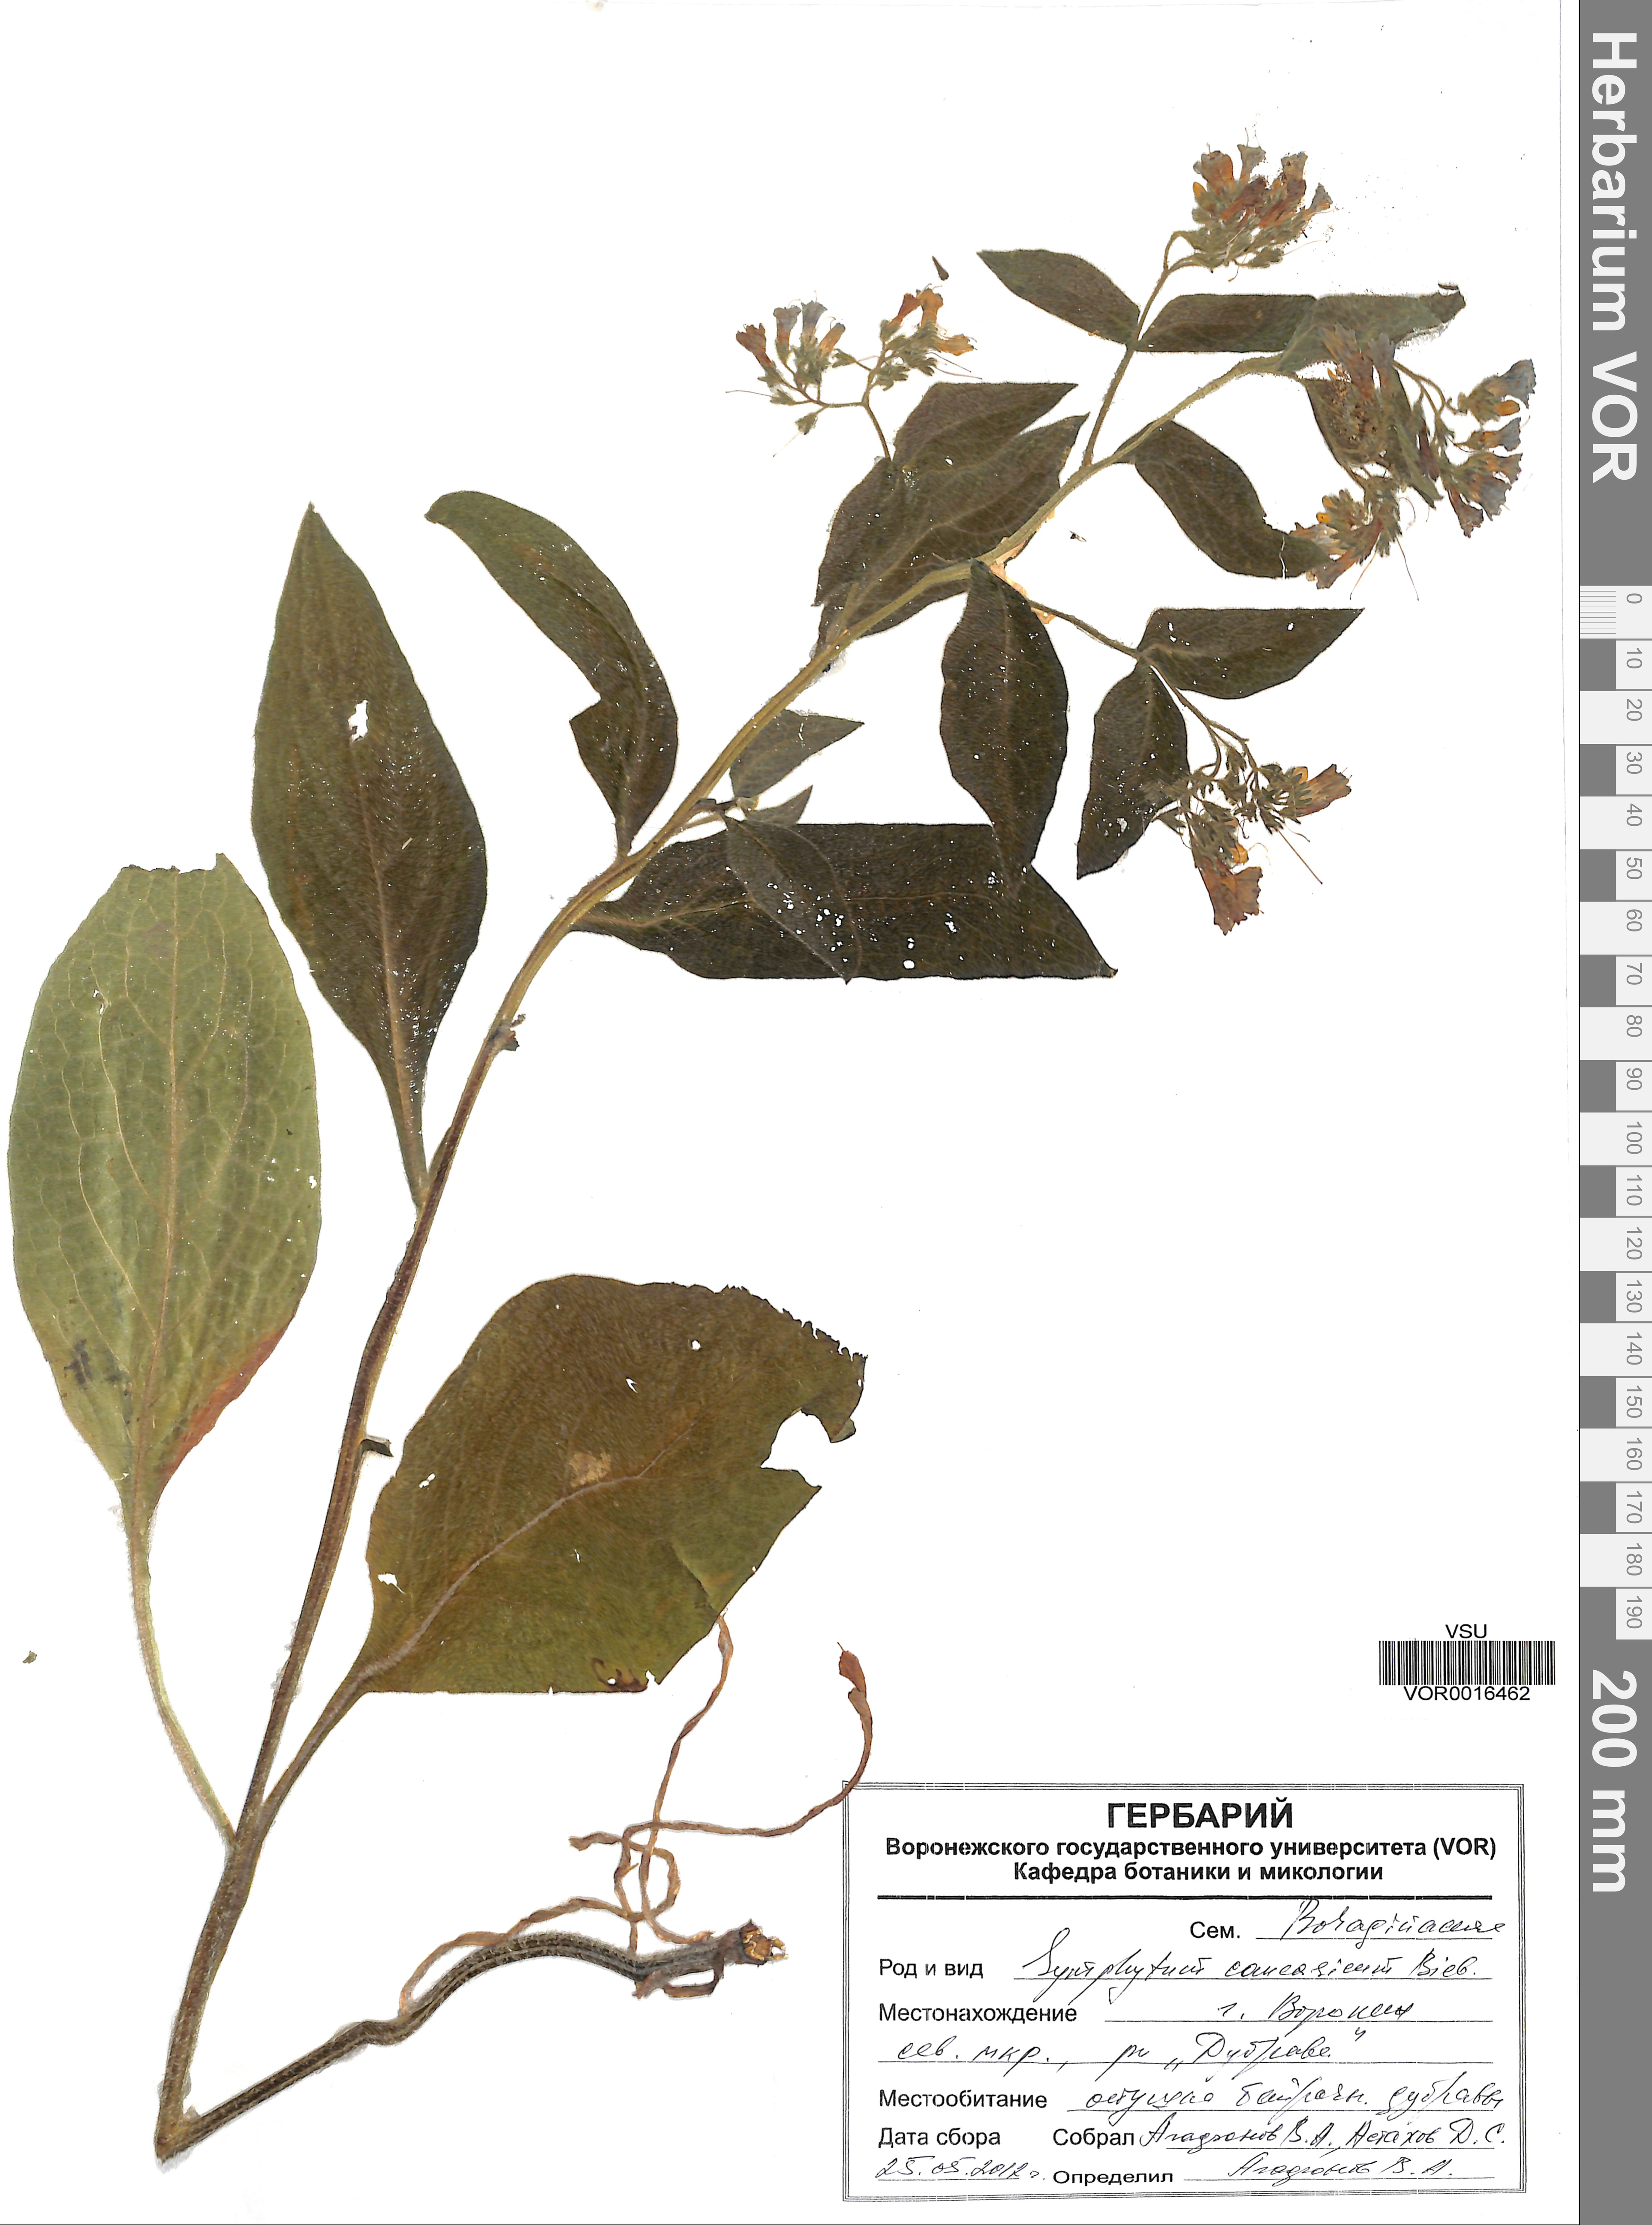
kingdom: Plantae
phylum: Tracheophyta
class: Magnoliopsida
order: Boraginales
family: Boraginaceae
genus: Symphytum
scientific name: Symphytum caucasicum
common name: Caucasian comfrey
